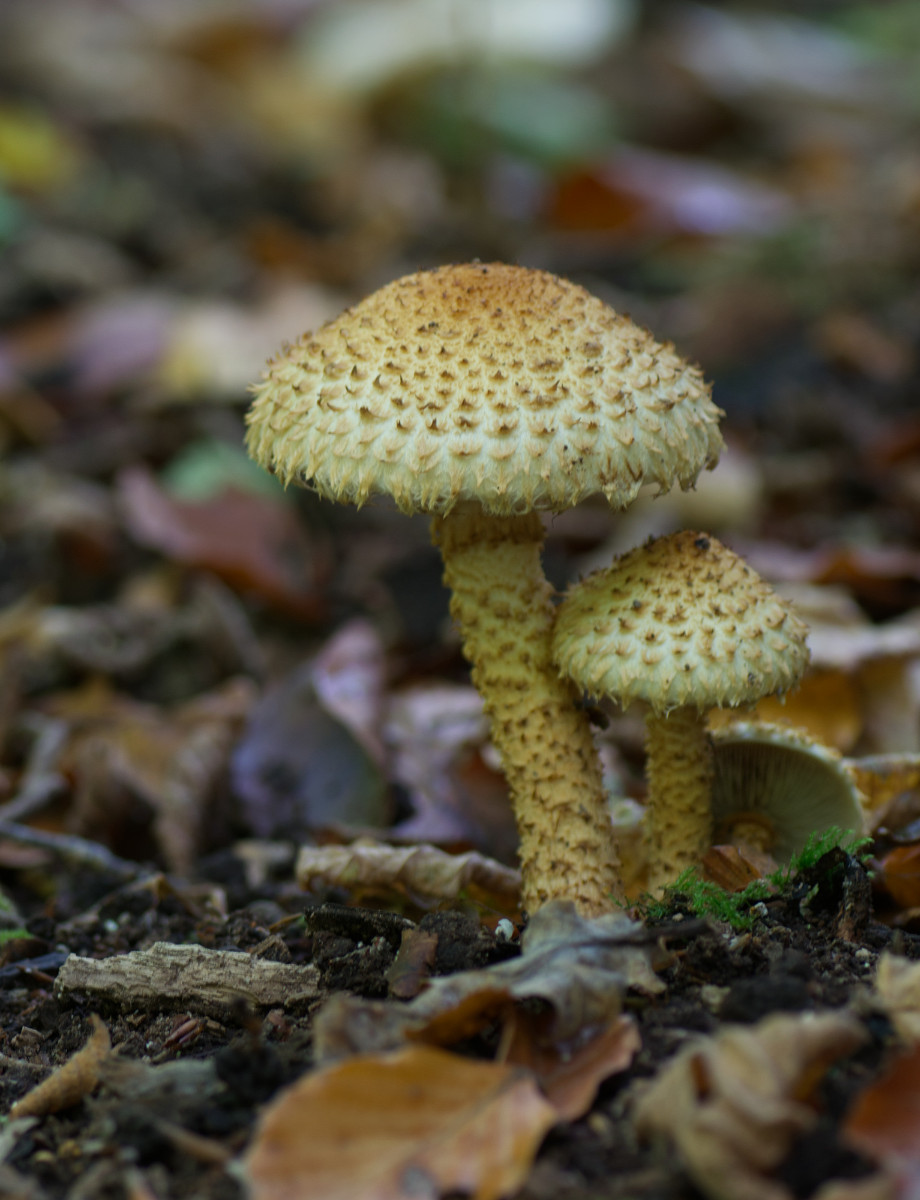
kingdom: Fungi
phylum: Basidiomycota
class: Agaricomycetes
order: Agaricales
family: Strophariaceae
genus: Pholiota
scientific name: Pholiota squarrosa
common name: krumskællet skælhat
